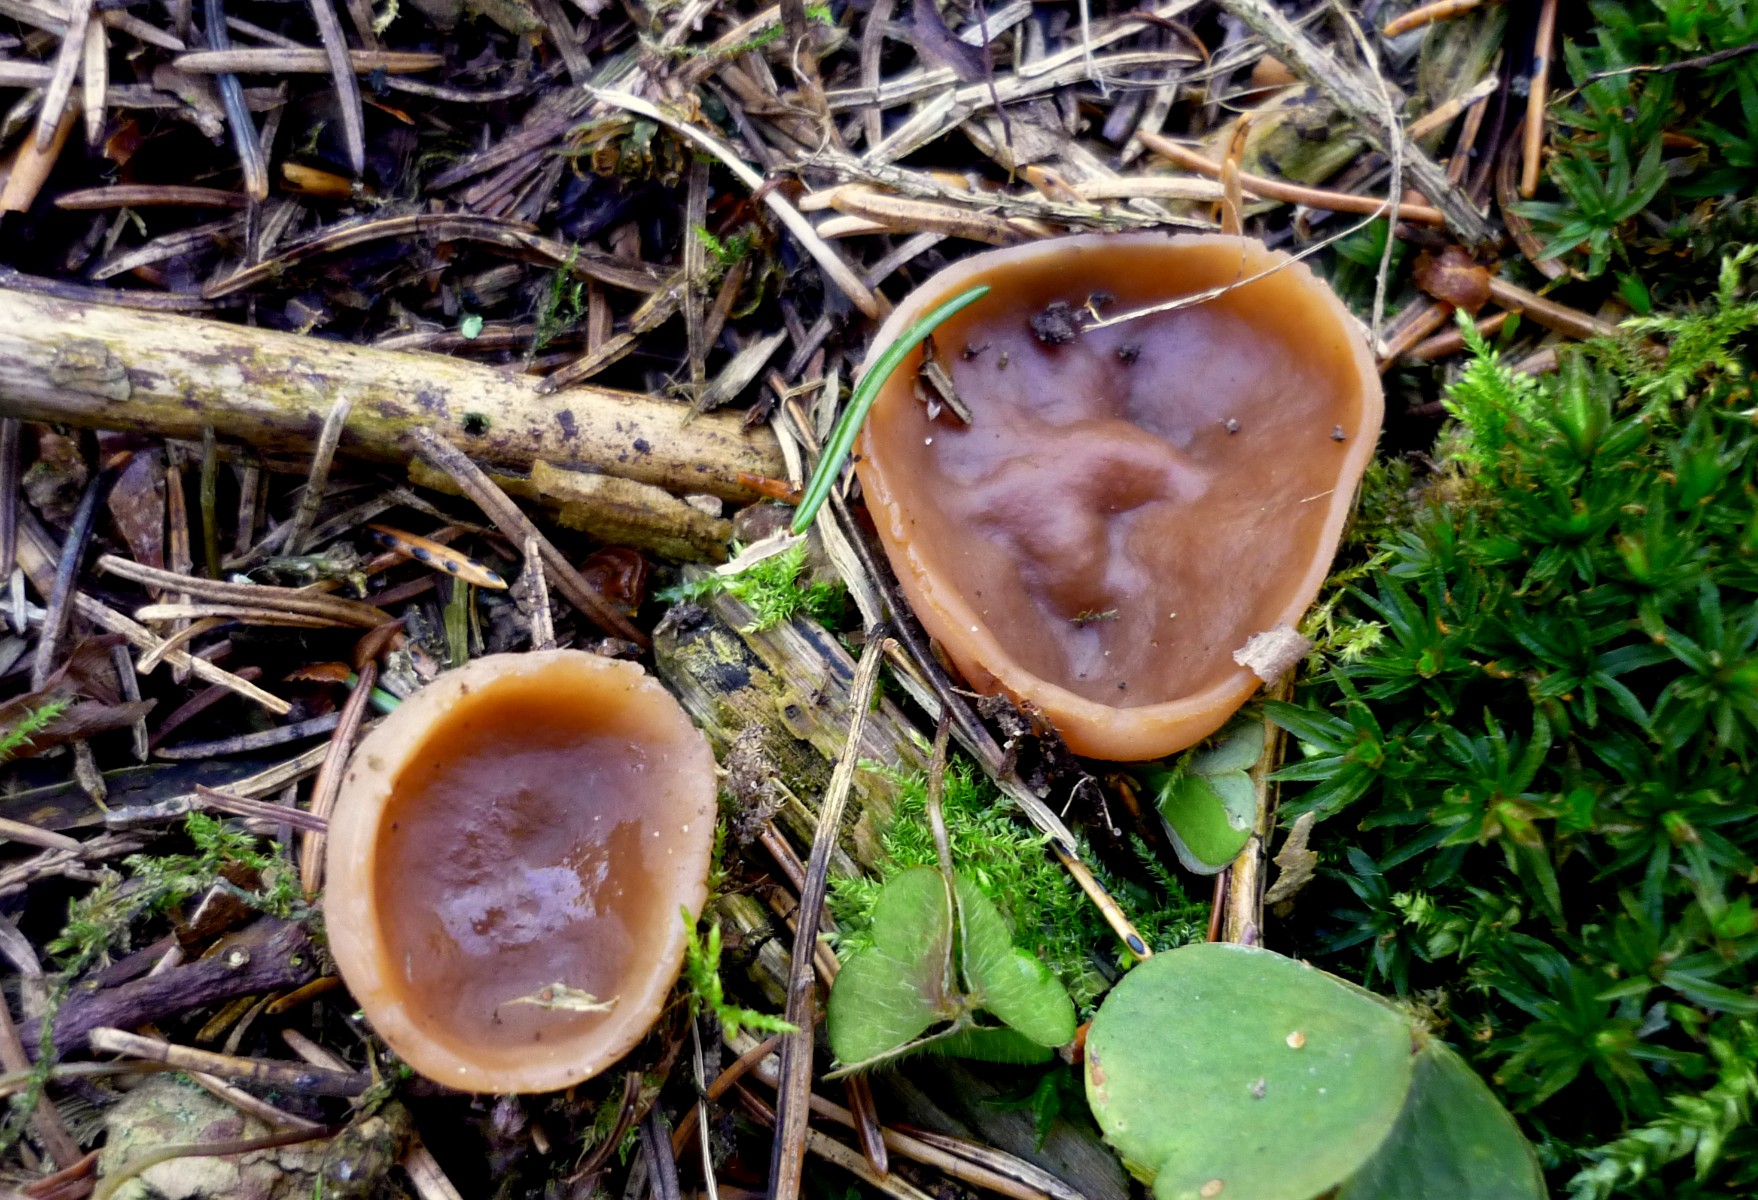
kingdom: Fungi
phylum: Ascomycota
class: Pezizomycetes
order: Pezizales
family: Discinaceae
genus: Discina
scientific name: Discina ancilis
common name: udbredt stenmorkel
